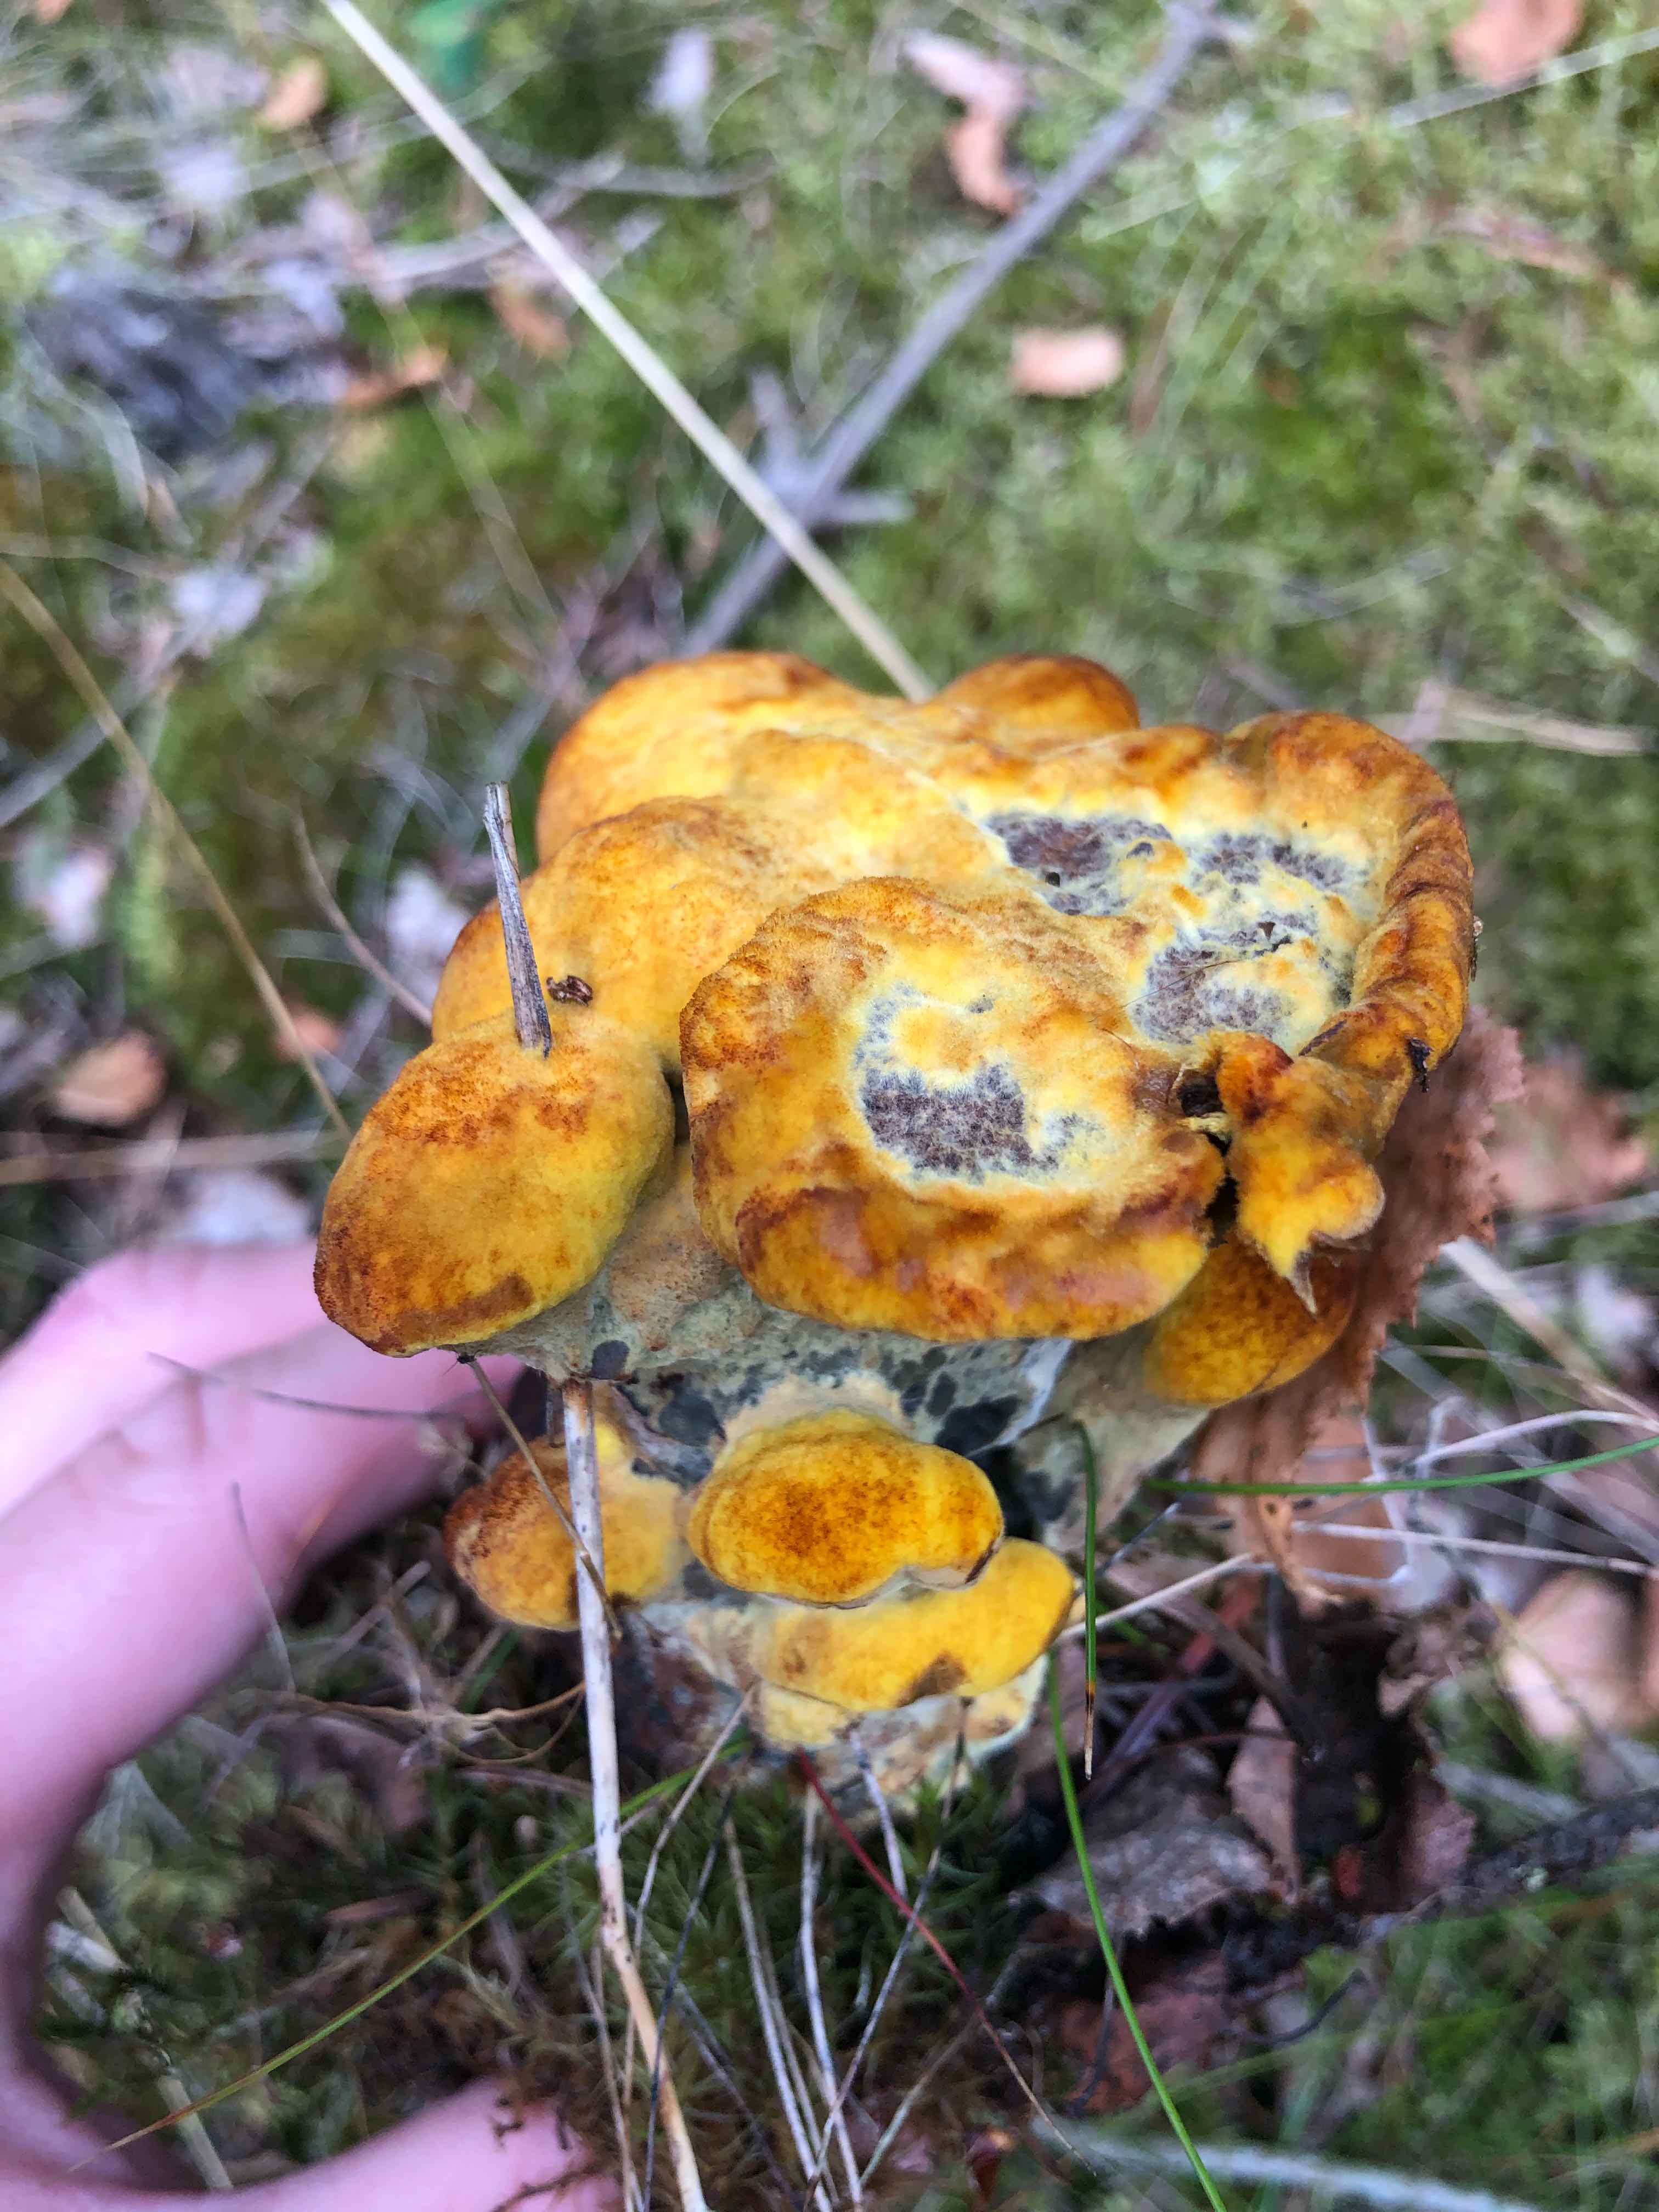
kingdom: Fungi
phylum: Basidiomycota
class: Agaricomycetes
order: Polyporales
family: Laetiporaceae
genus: Phaeolus
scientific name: Phaeolus schweinitzii
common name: brunporesvamp
